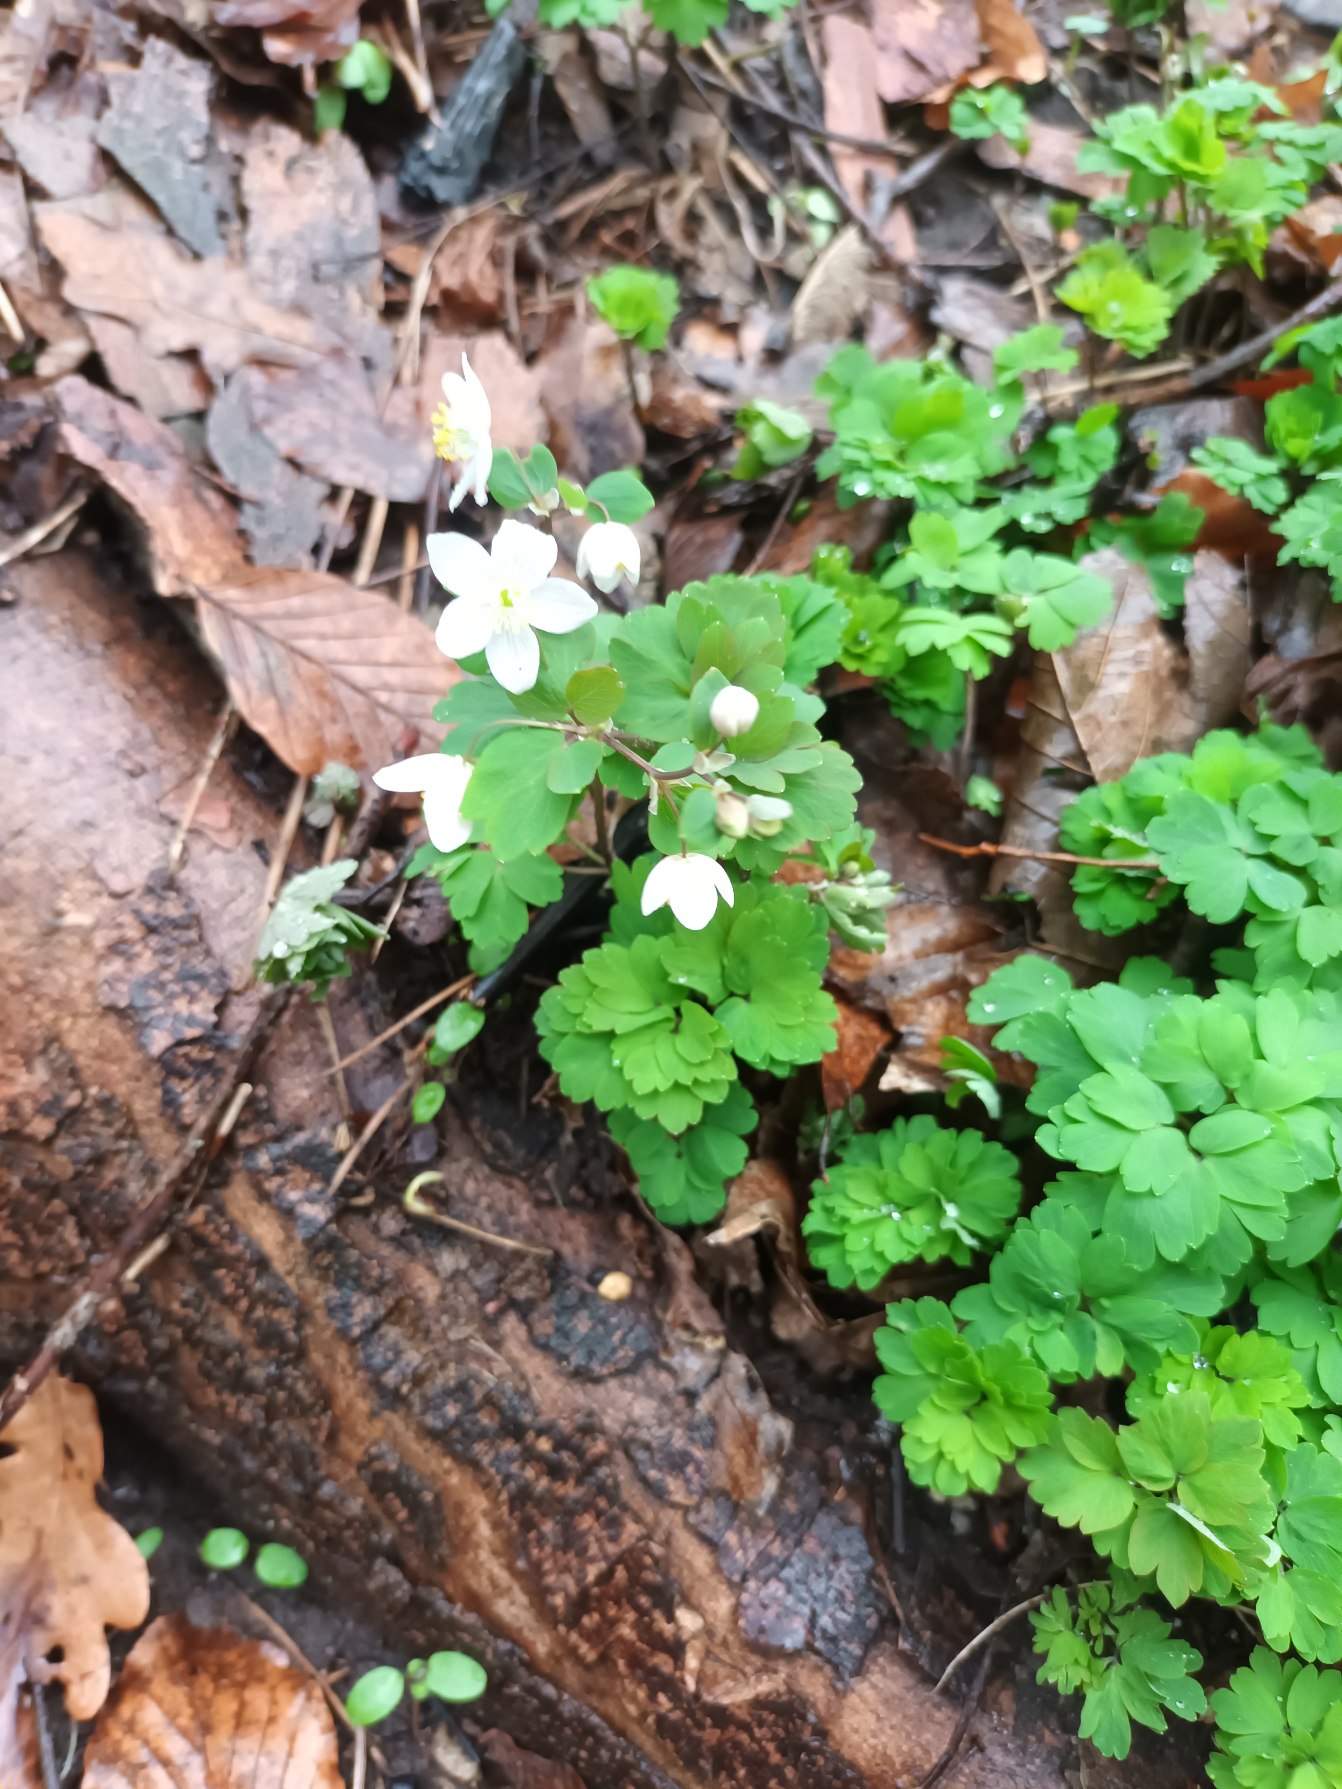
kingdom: Plantae
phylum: Tracheophyta
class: Magnoliopsida
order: Ranunculales
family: Ranunculaceae
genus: Isopyrum
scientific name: Isopyrum thalictroides
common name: Frøstjerneanemone
